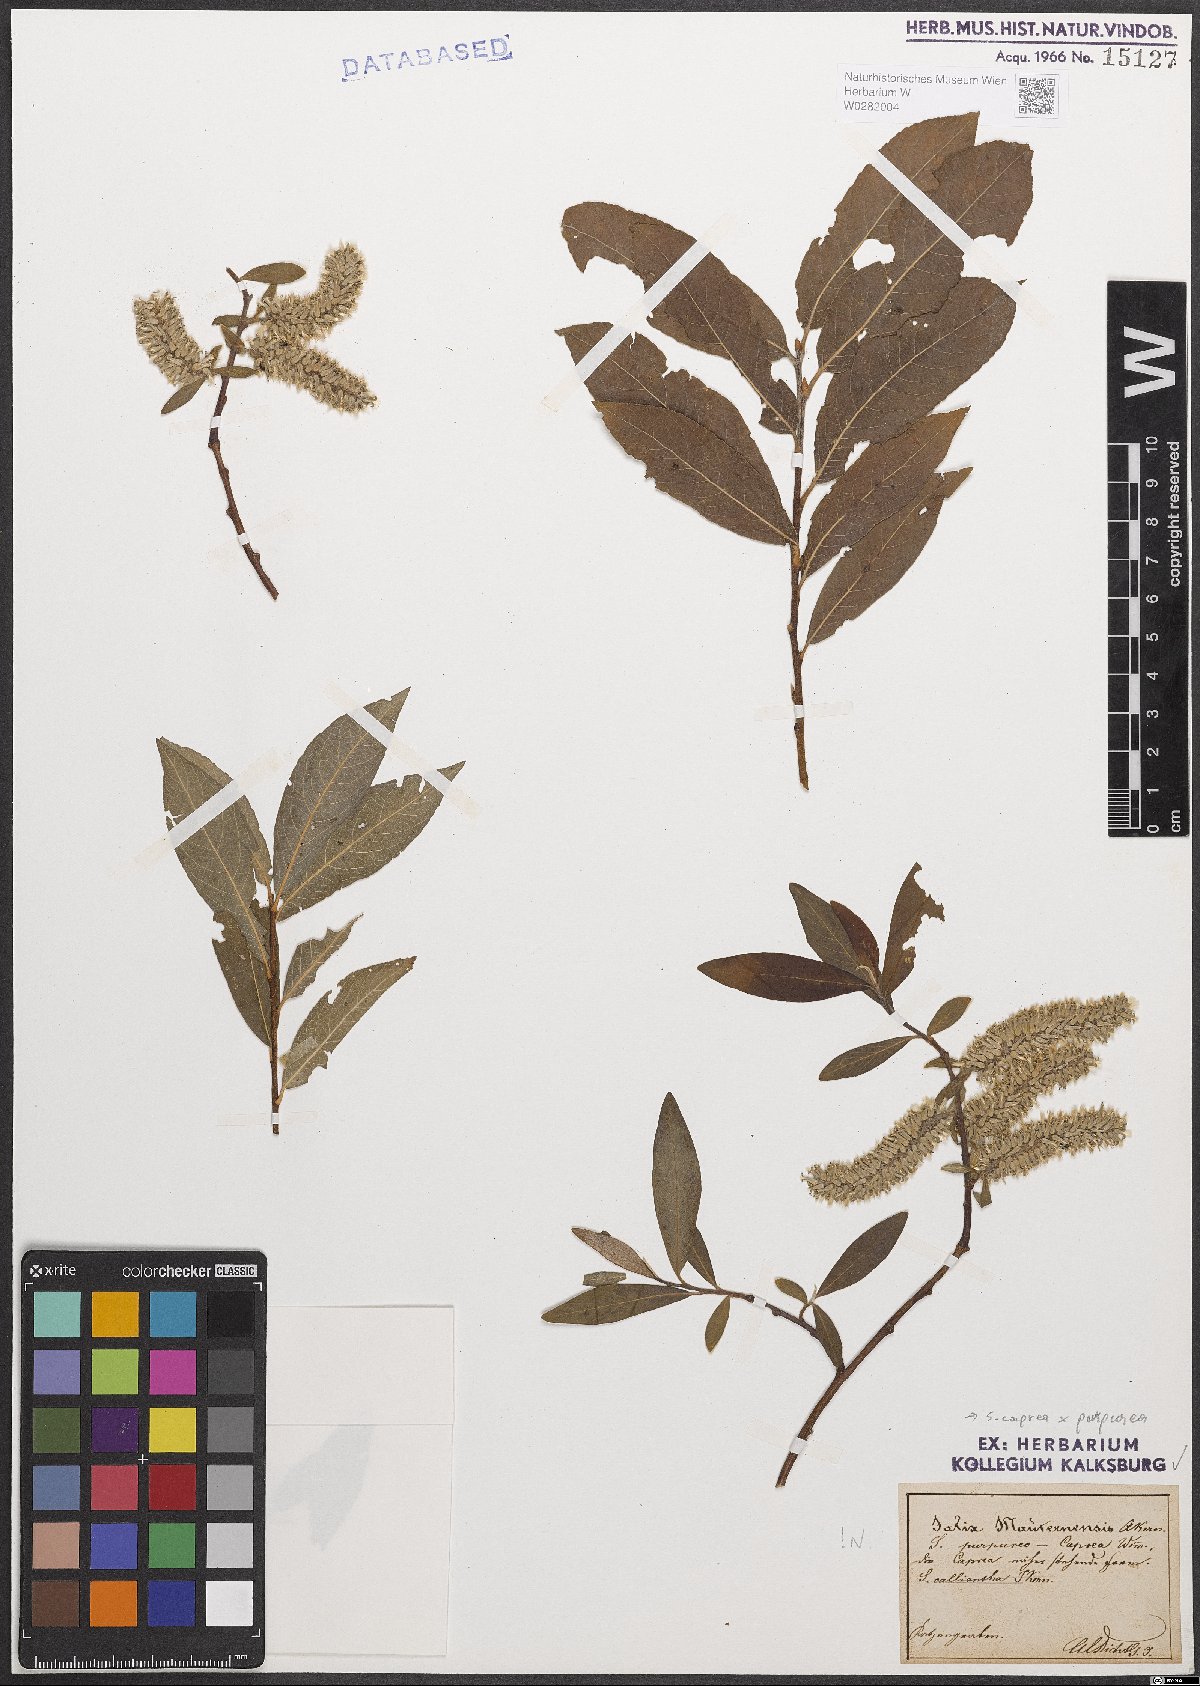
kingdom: Plantae
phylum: Tracheophyta
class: Magnoliopsida
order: Malpighiales
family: Salicaceae
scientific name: Salicaceae
